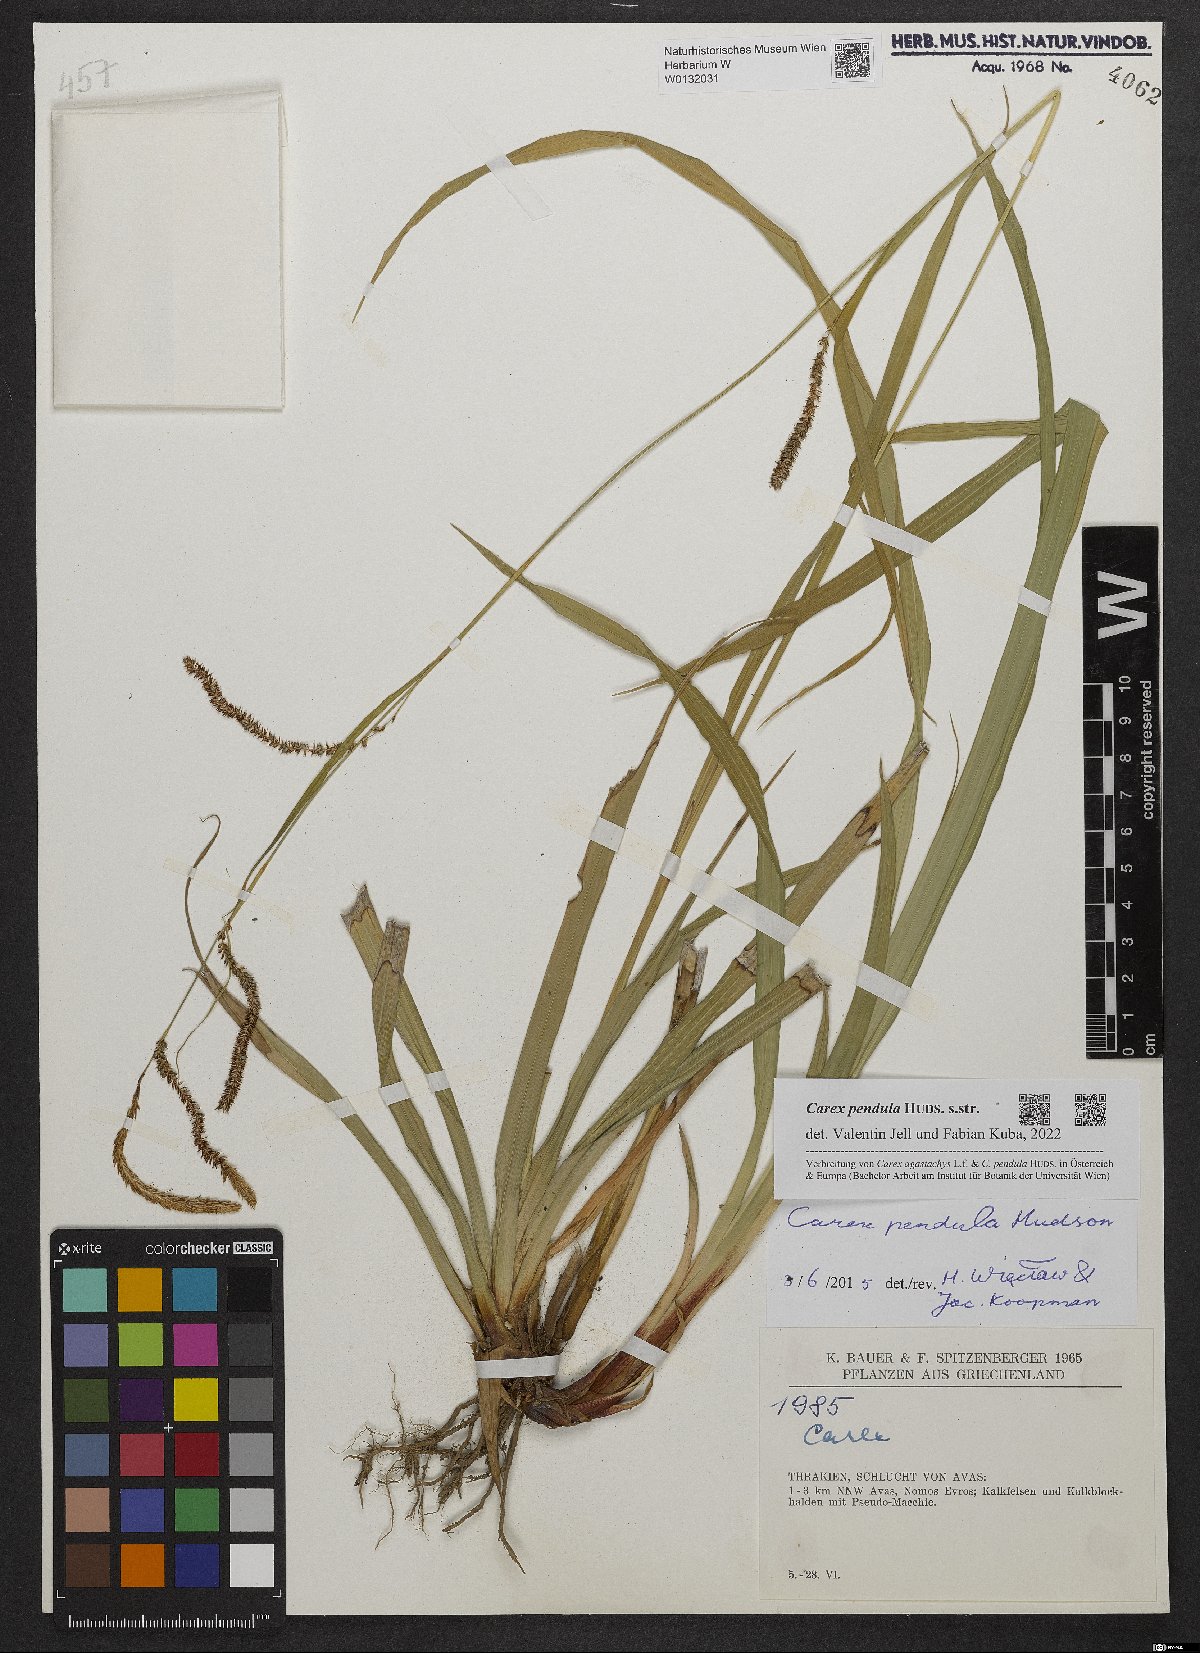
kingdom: Plantae
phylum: Tracheophyta
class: Liliopsida
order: Poales
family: Cyperaceae
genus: Carex
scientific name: Carex pendula
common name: Pendulous sedge
